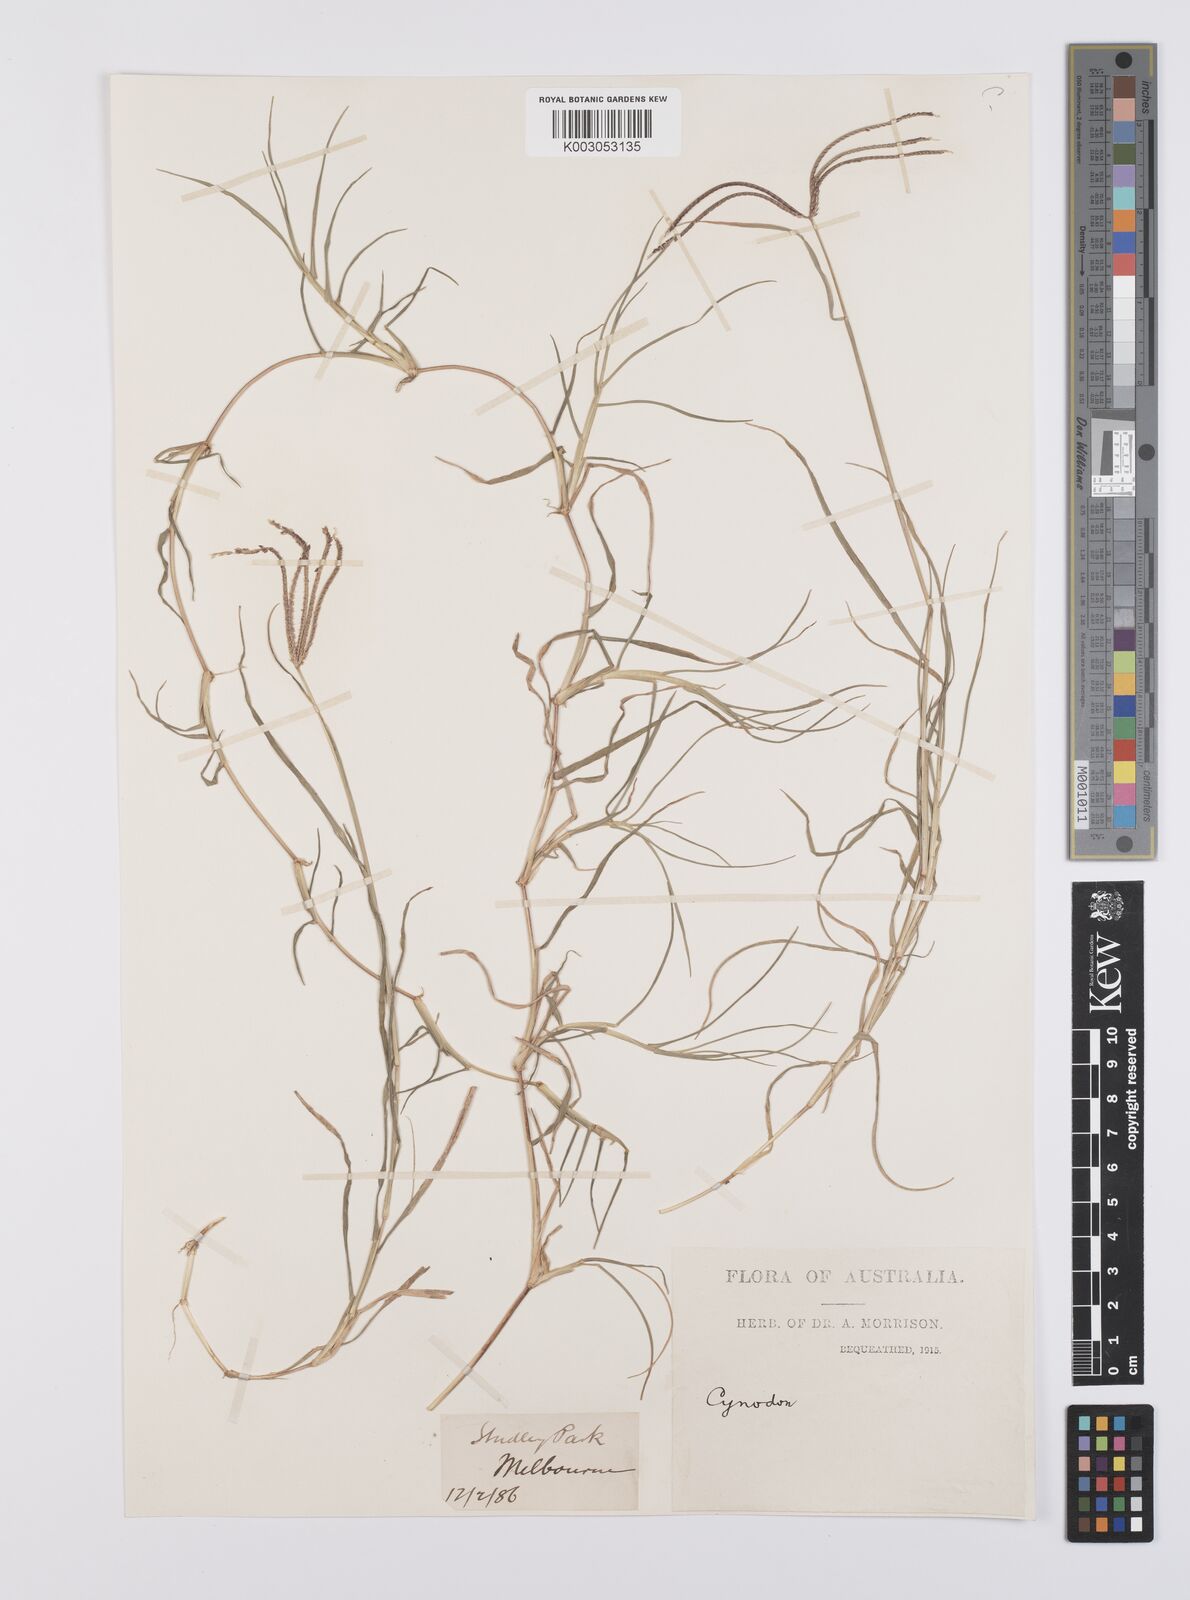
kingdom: Plantae
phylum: Tracheophyta
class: Liliopsida
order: Poales
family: Poaceae
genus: Cynodon
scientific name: Cynodon dactylon
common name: Bermuda grass
